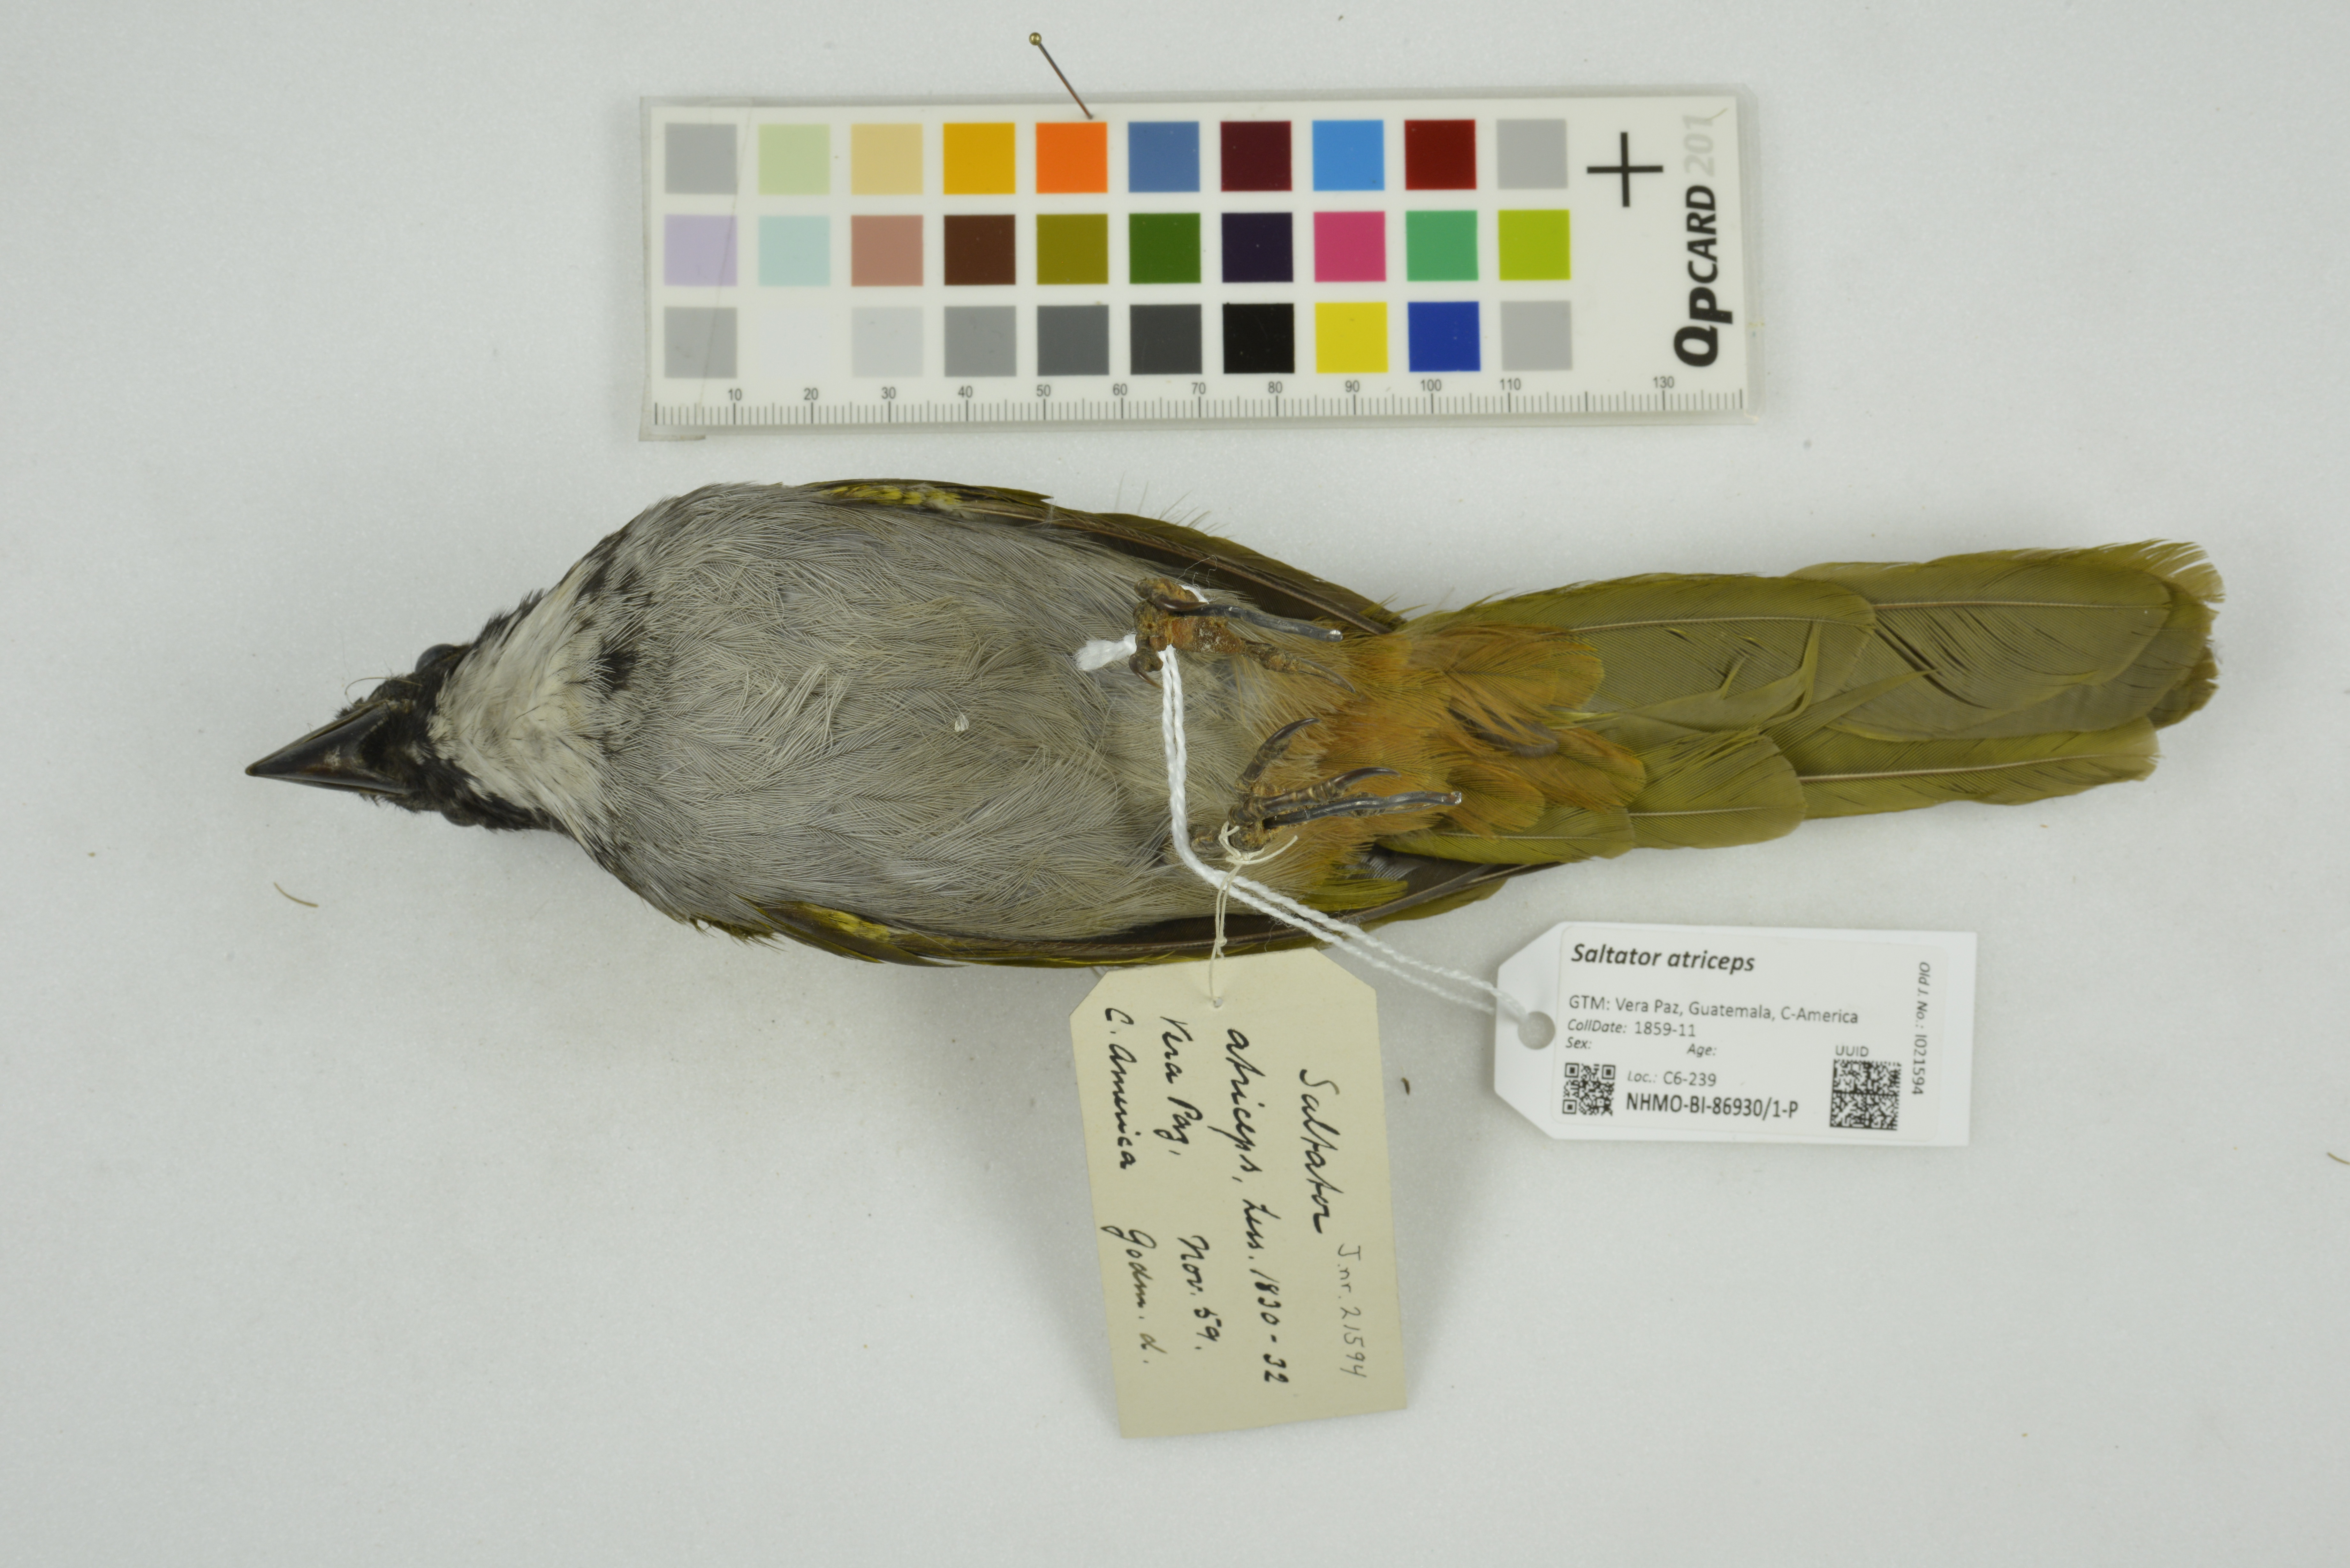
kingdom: Animalia
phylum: Chordata
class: Aves
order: Passeriformes
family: Thraupidae
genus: Saltator
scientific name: Saltator atriceps
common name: Black-headed saltator
